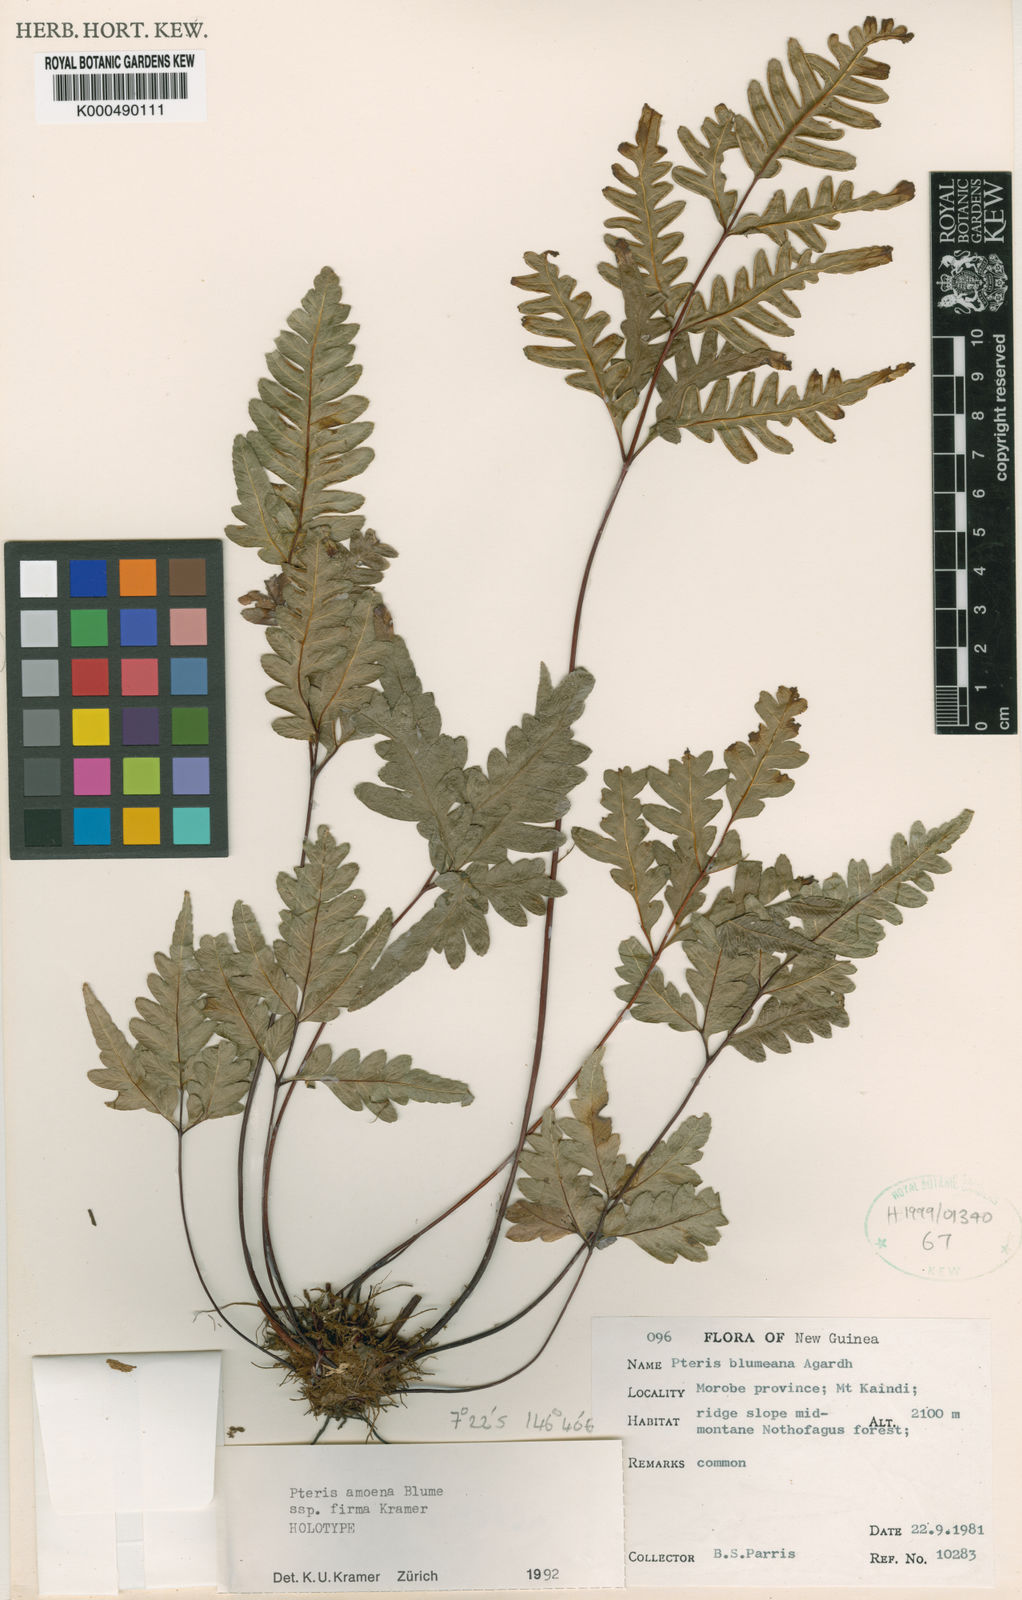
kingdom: Plantae
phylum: Tracheophyta
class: Polypodiopsida
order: Polypodiales
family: Pteridaceae
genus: Pteris
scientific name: Pteris amoena
